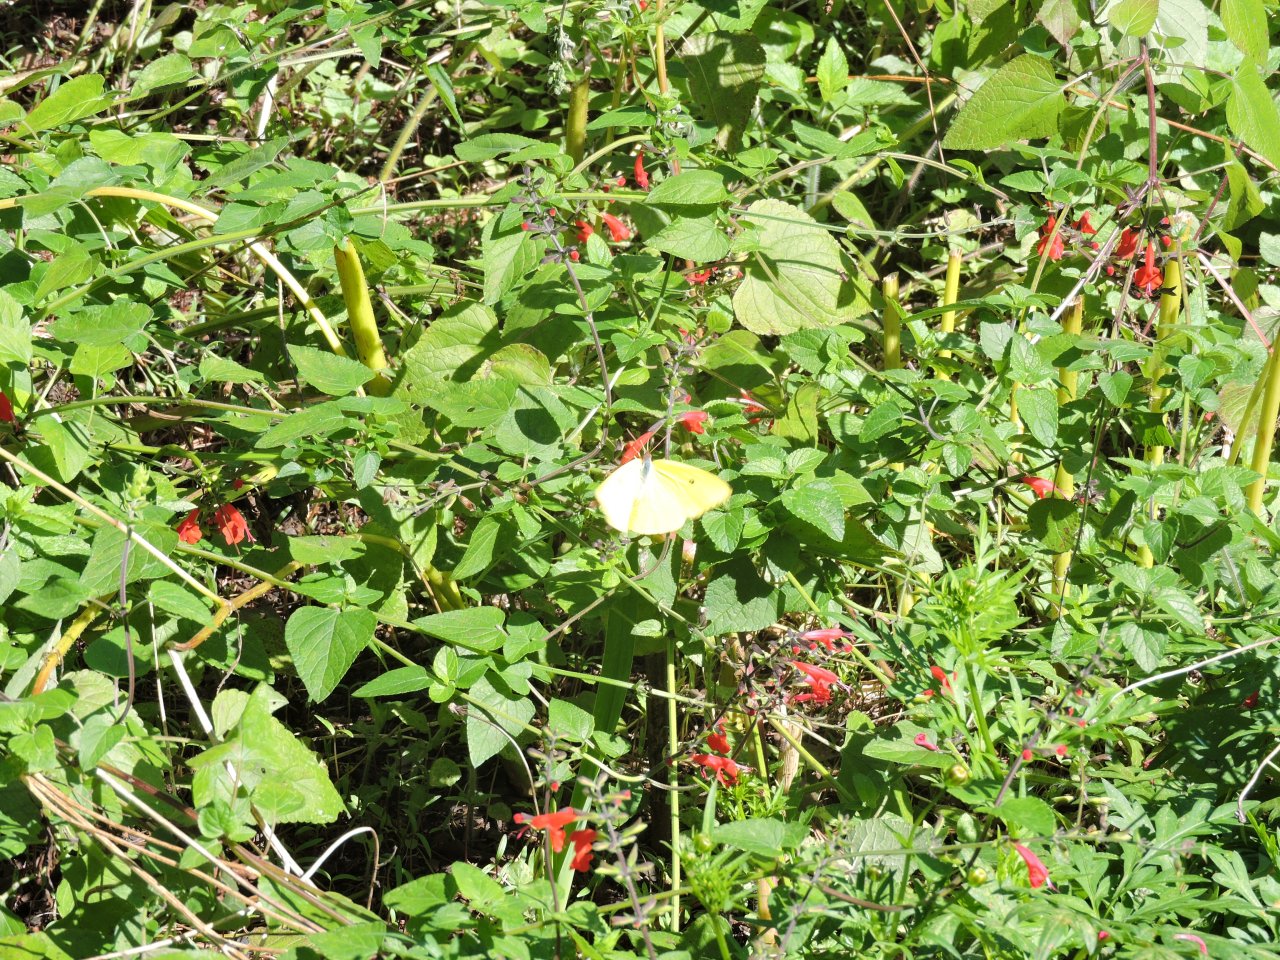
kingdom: Animalia
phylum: Arthropoda
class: Insecta
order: Lepidoptera
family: Pieridae
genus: Phoebis
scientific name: Phoebis sennae
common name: Cloudless Sulphur
